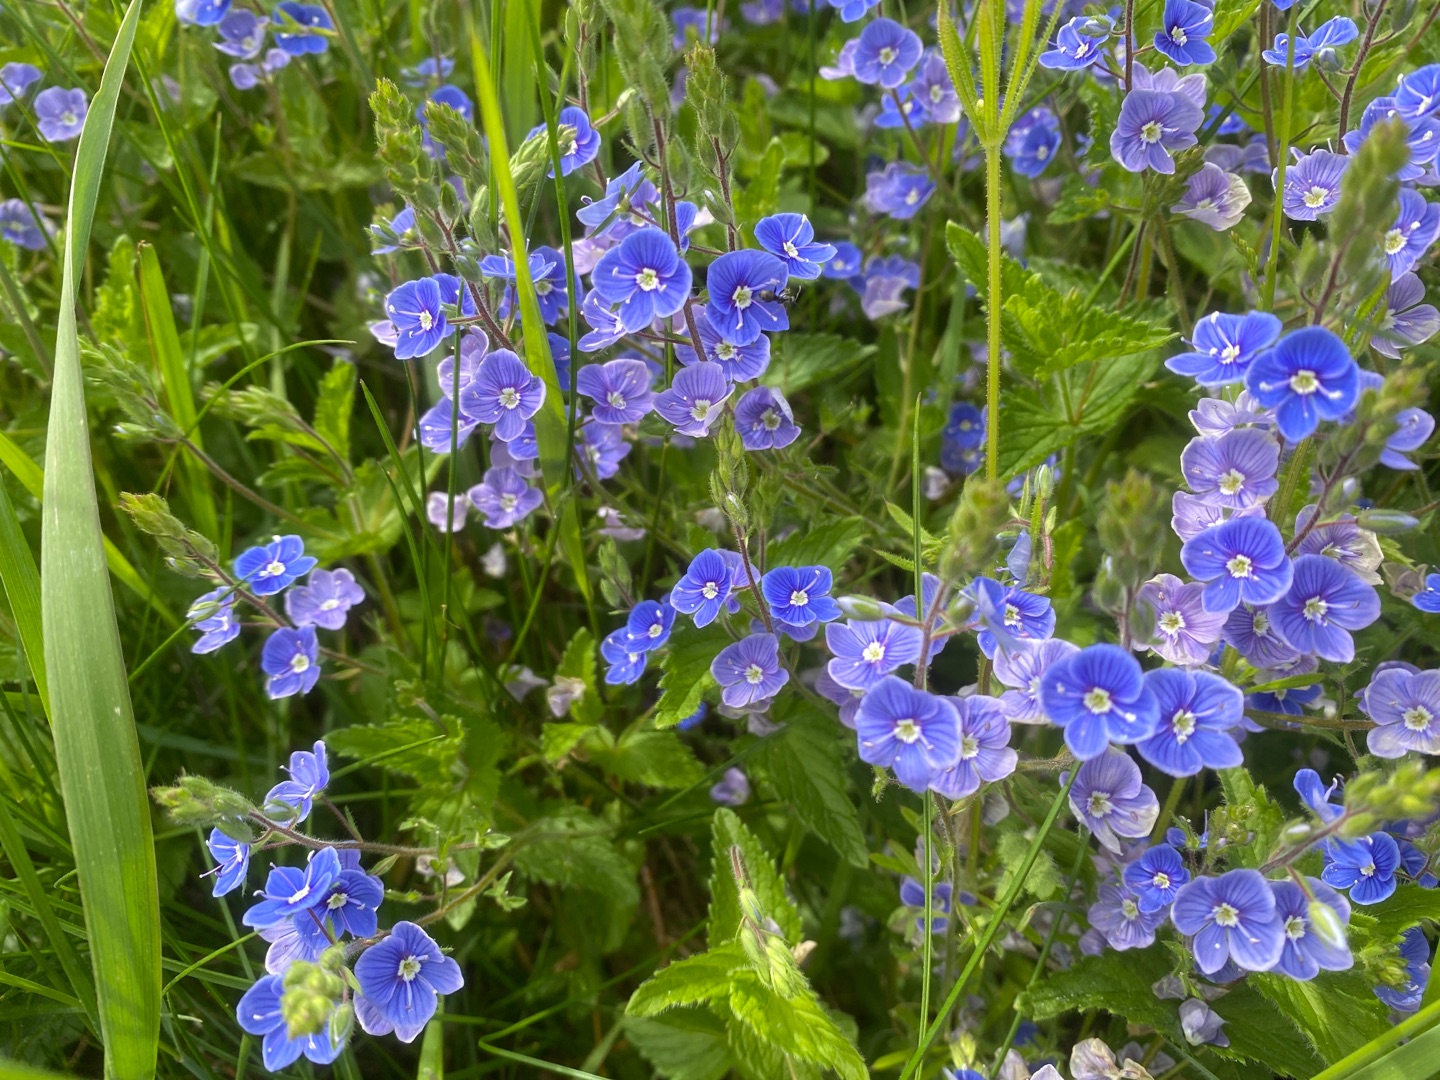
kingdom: Plantae
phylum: Tracheophyta
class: Magnoliopsida
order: Lamiales
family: Plantaginaceae
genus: Veronica
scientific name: Veronica chamaedrys
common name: Tveskægget ærenpris
